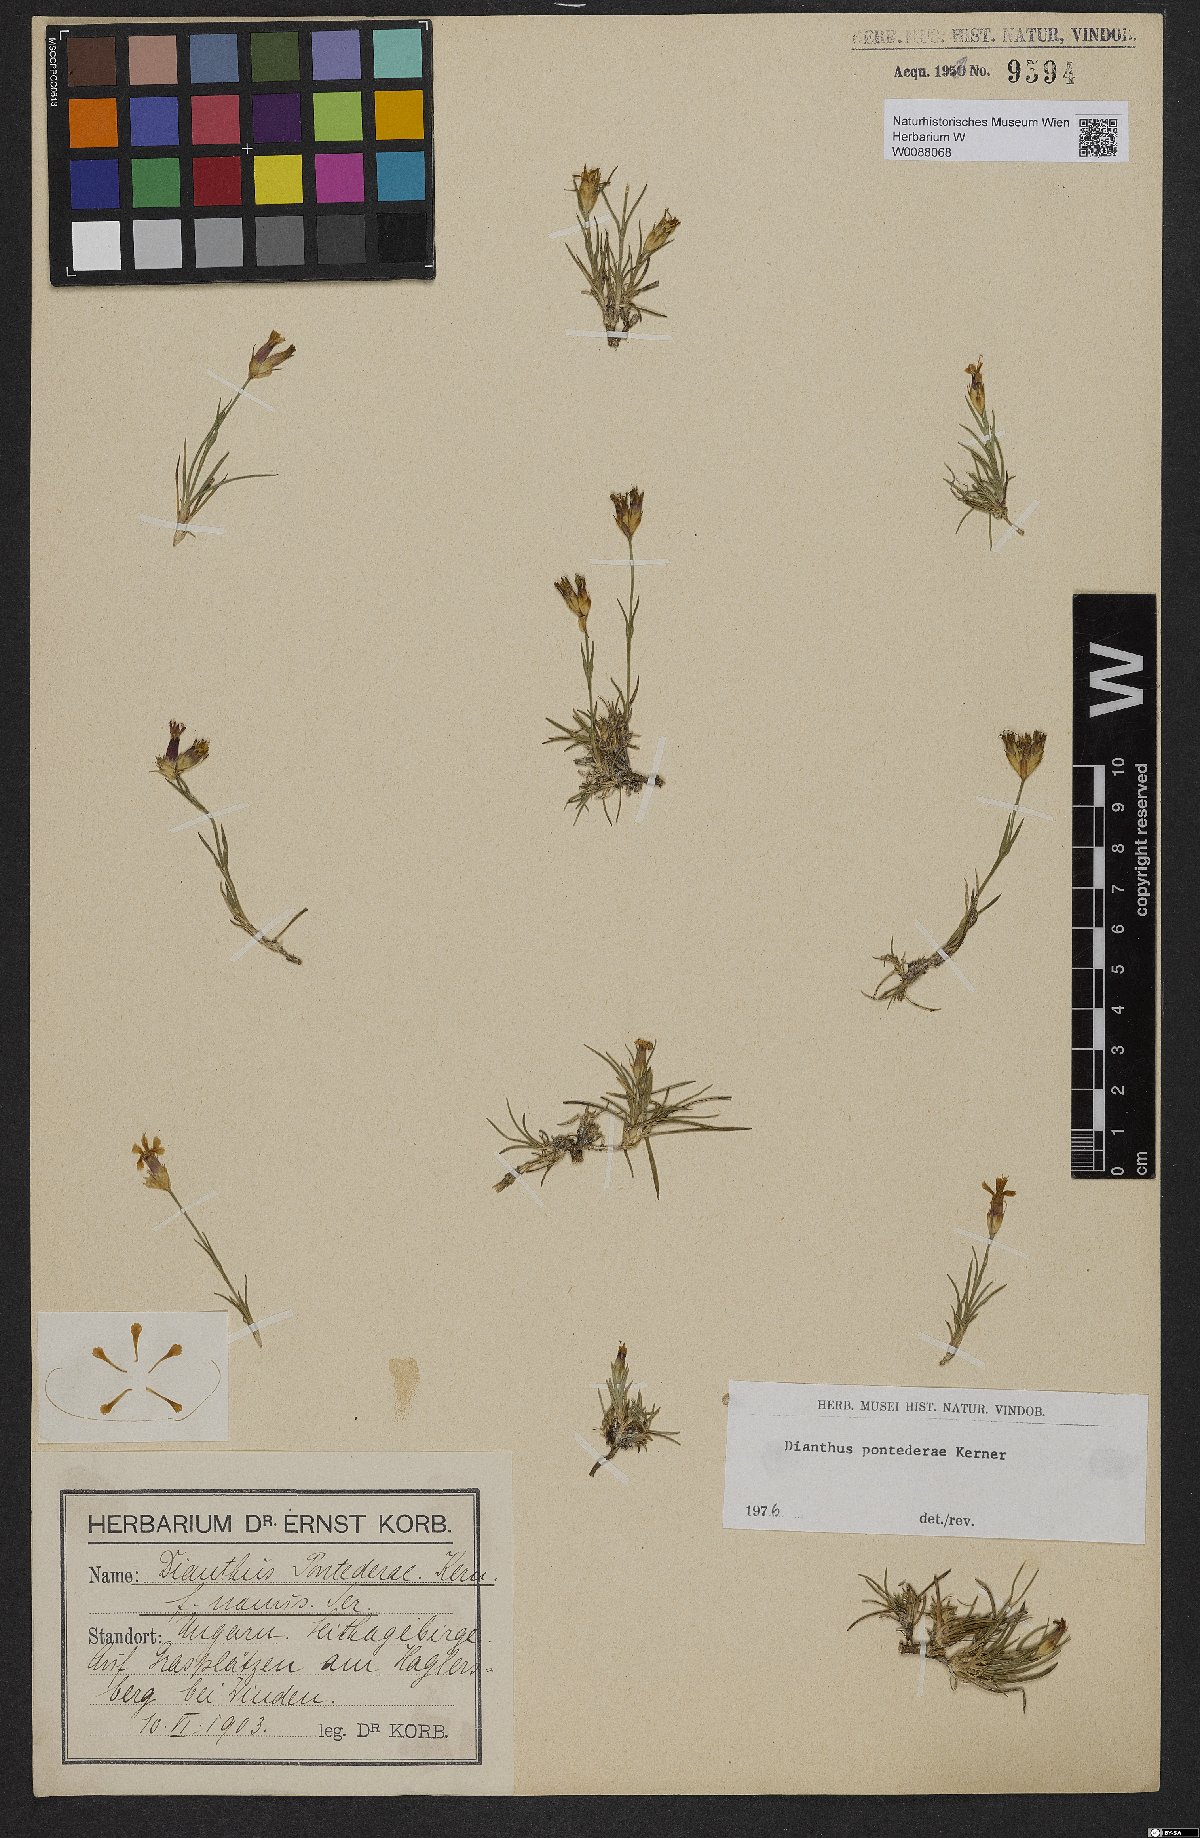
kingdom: Plantae
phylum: Tracheophyta
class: Magnoliopsida
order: Caryophyllales
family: Caryophyllaceae
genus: Dianthus
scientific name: Dianthus pontederae
